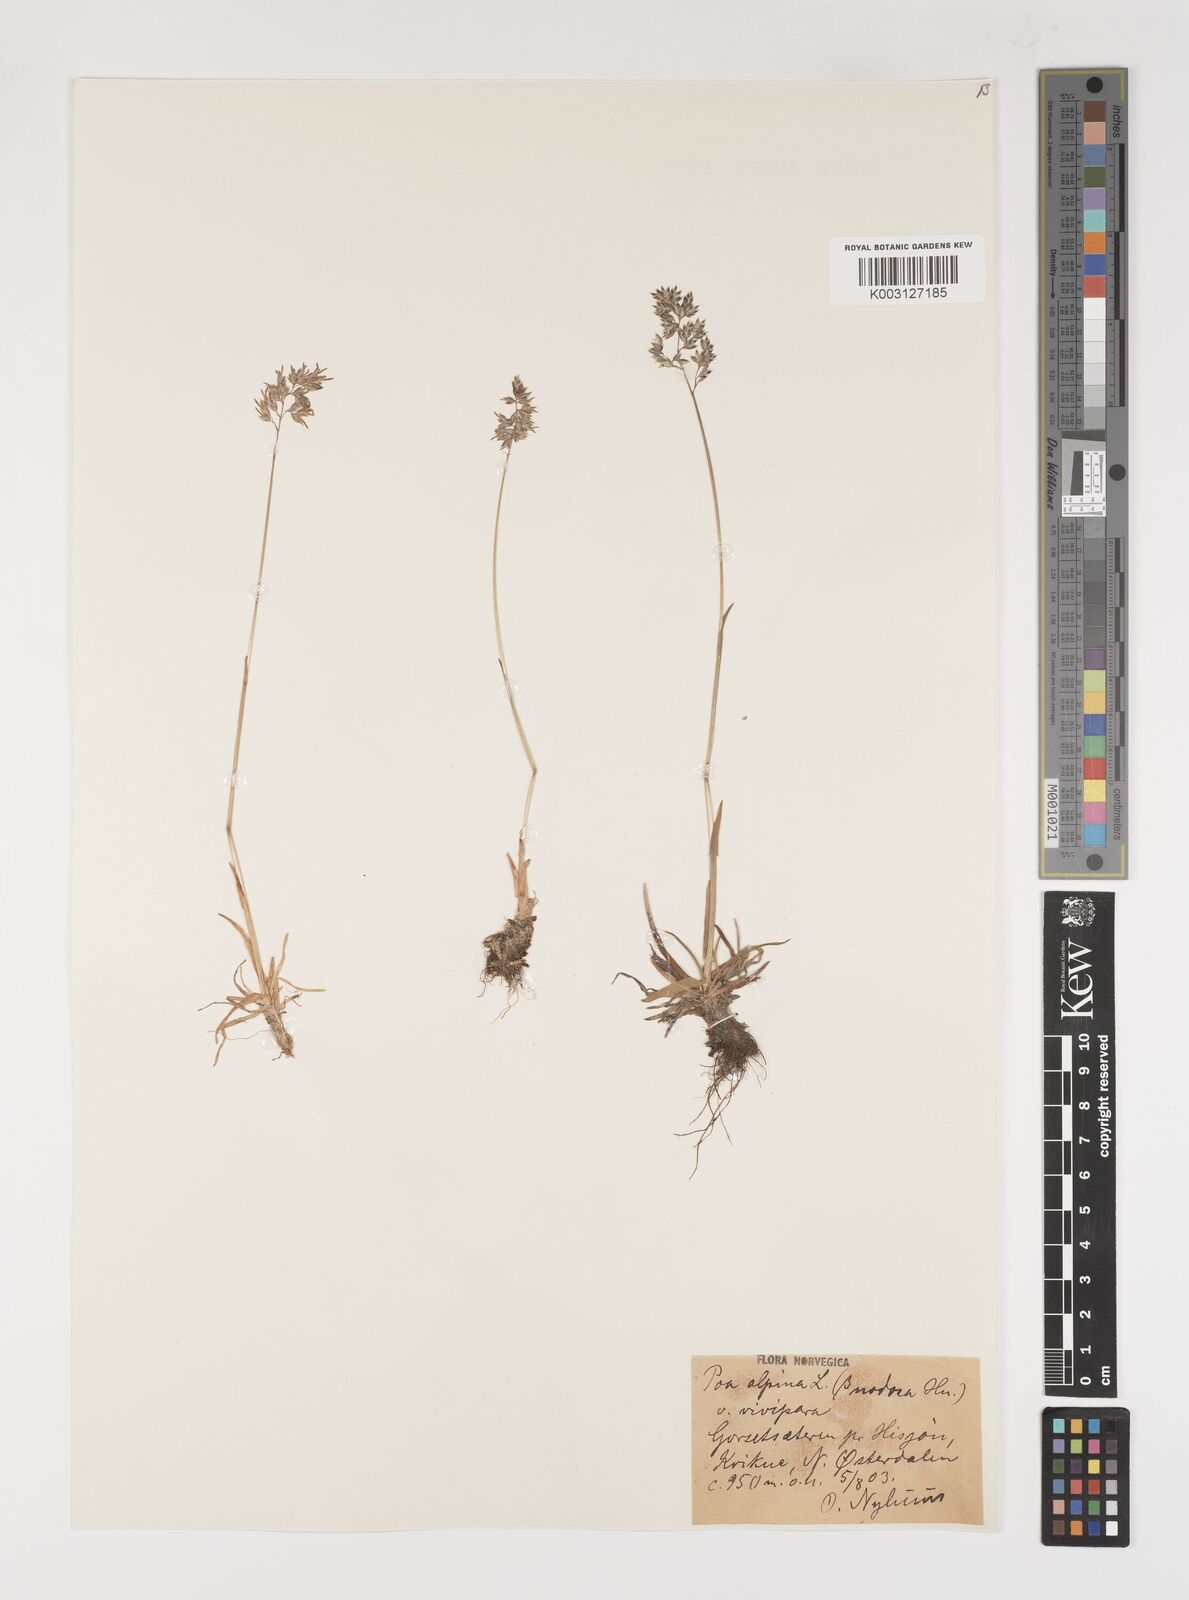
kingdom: Plantae
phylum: Tracheophyta
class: Liliopsida
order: Poales
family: Poaceae
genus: Poa
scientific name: Poa alpina
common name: Alpine bluegrass
